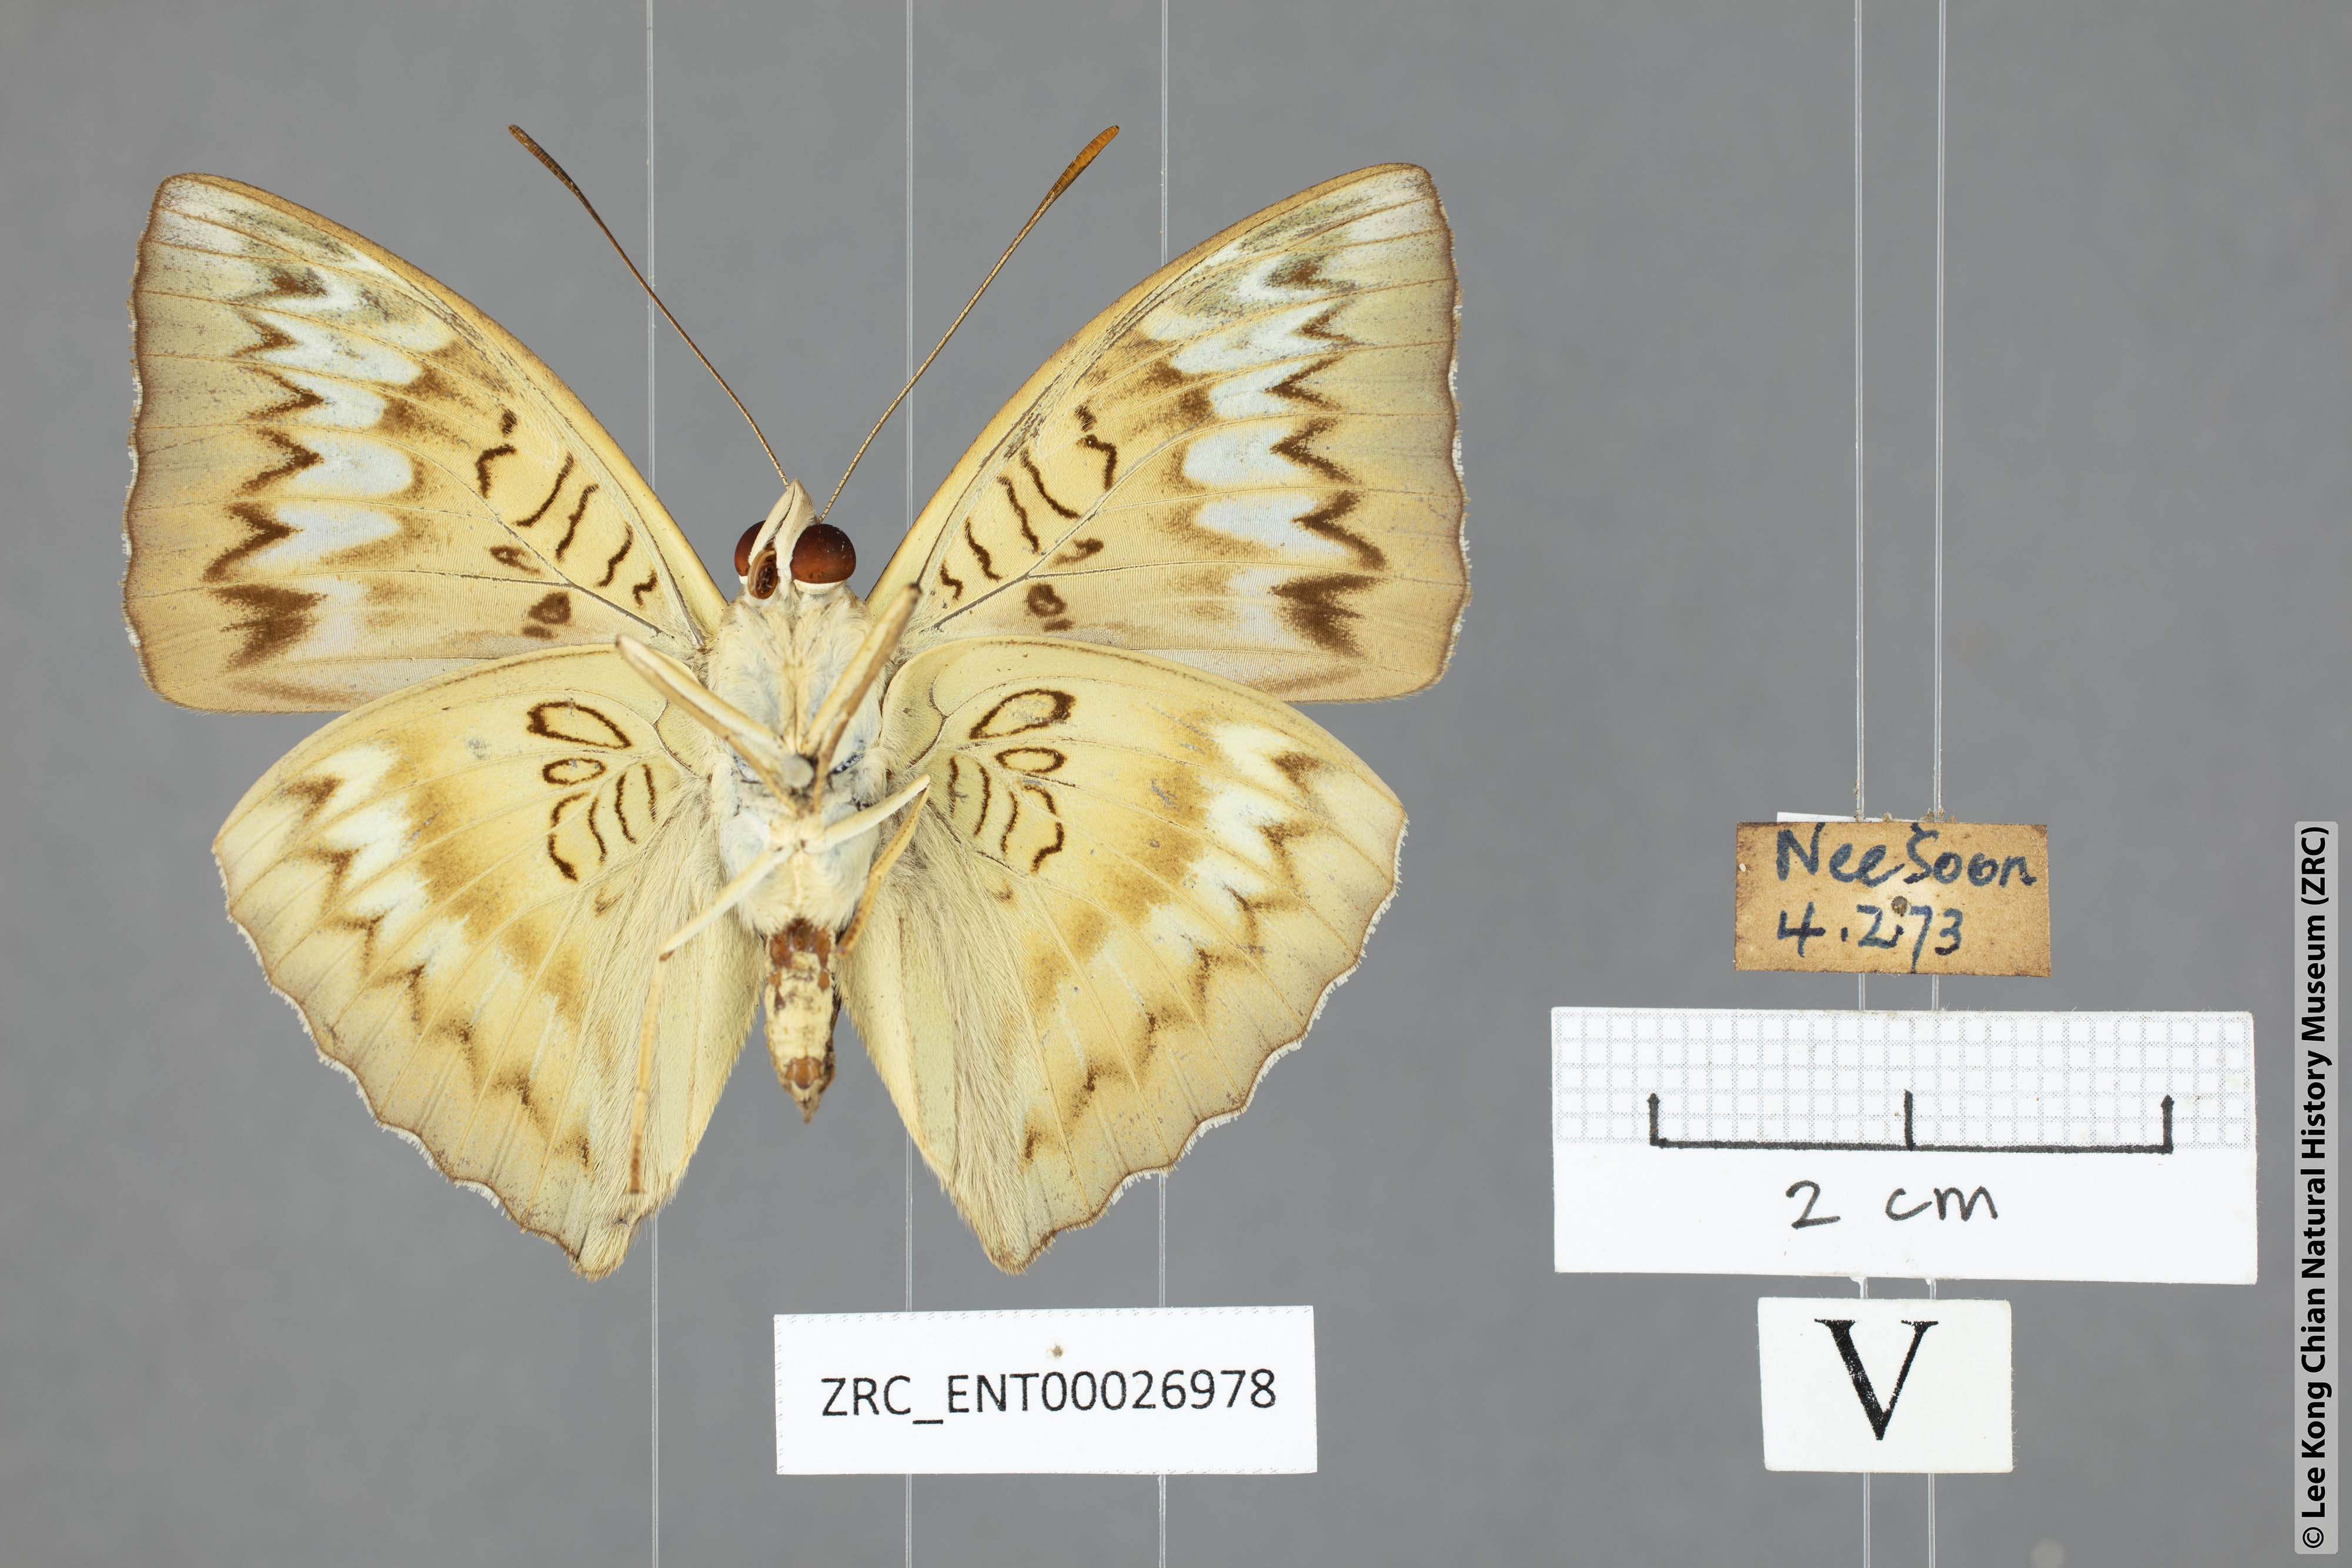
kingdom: Animalia
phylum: Arthropoda
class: Insecta
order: Lepidoptera
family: Nymphalidae
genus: Euthalia
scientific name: Euthalia monina
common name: Powdered baron
